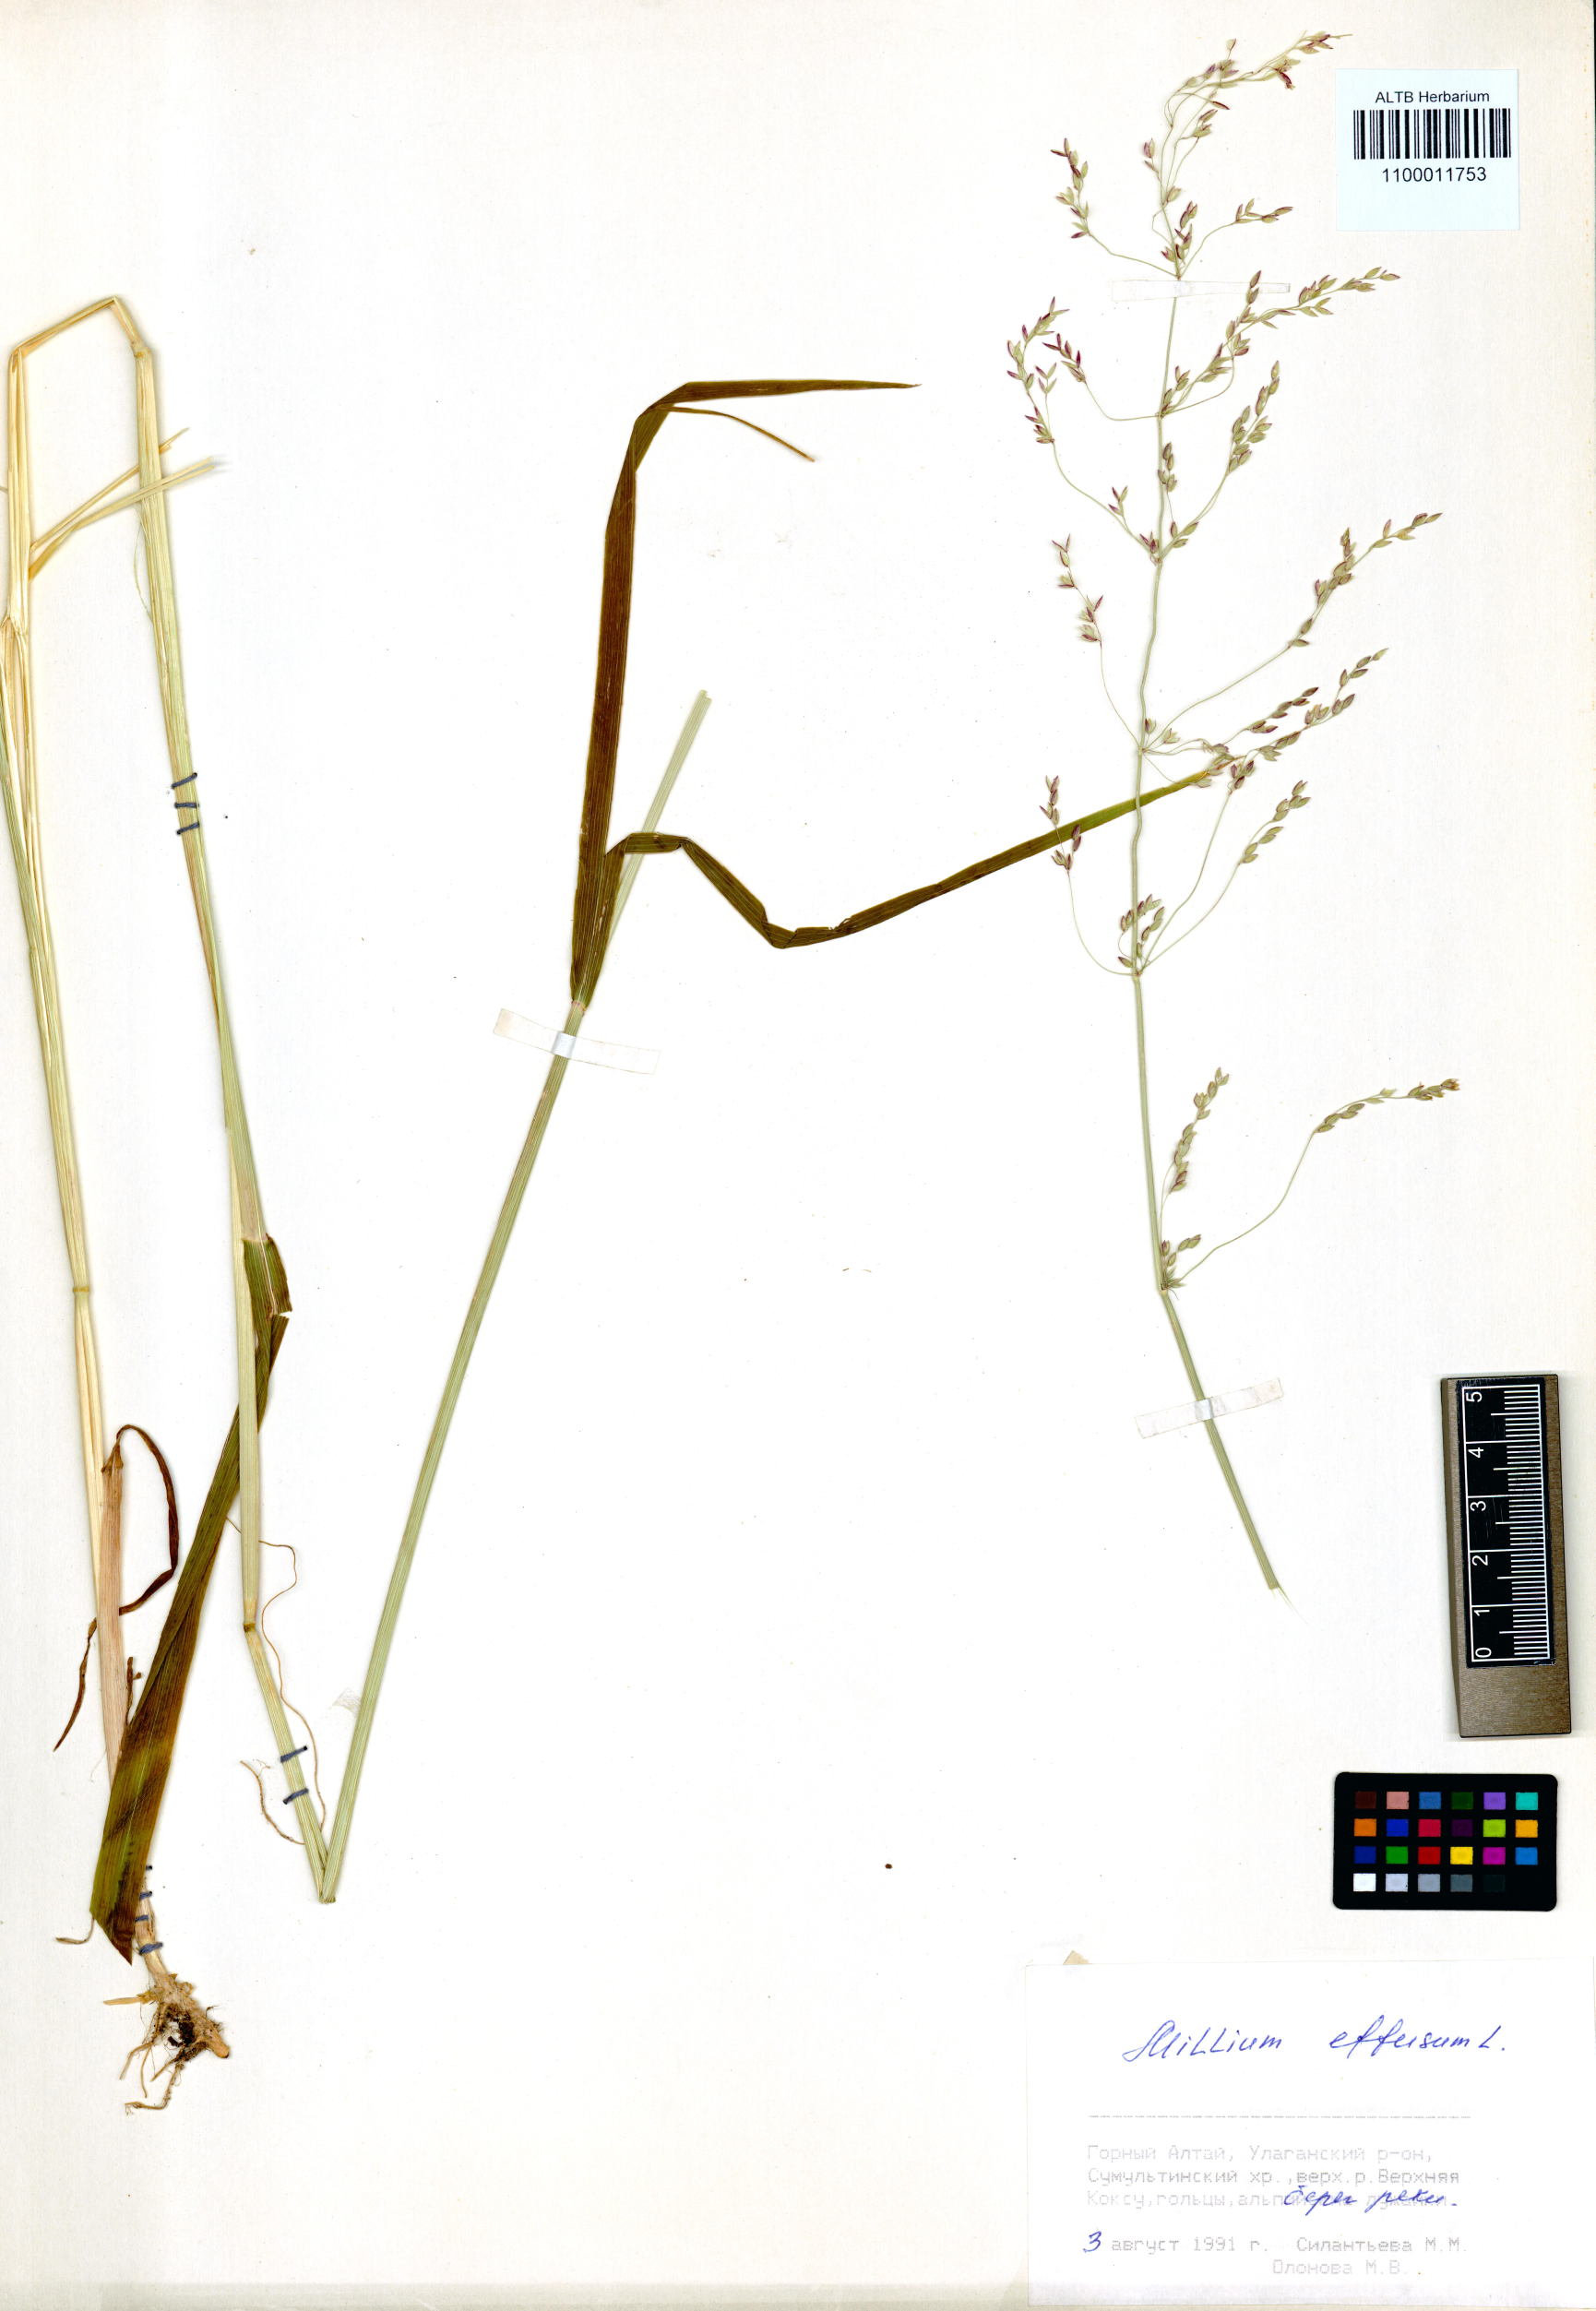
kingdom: Plantae
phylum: Tracheophyta
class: Liliopsida
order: Poales
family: Poaceae
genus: Milium
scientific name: Milium effusum
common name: Wood millet
